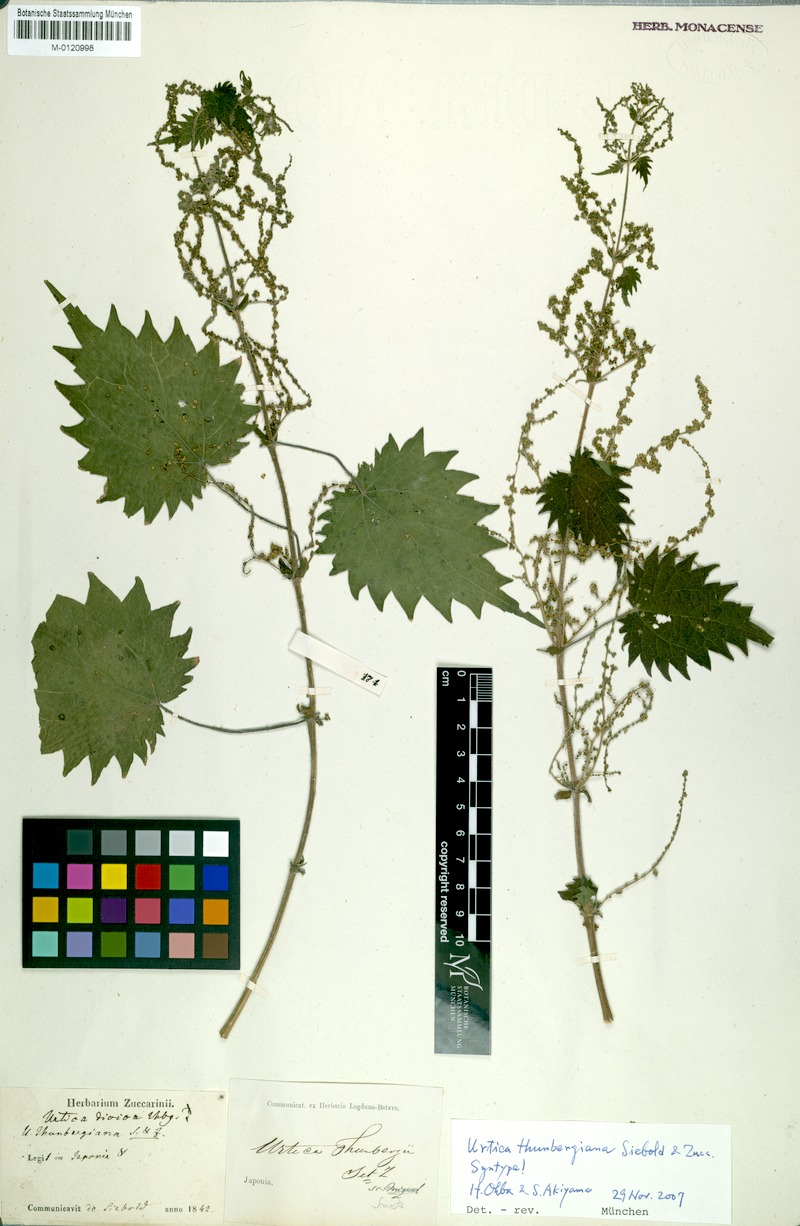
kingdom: Plantae
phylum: Tracheophyta
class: Magnoliopsida
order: Rosales
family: Urticaceae
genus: Urtica
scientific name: Urtica thunbergiana
